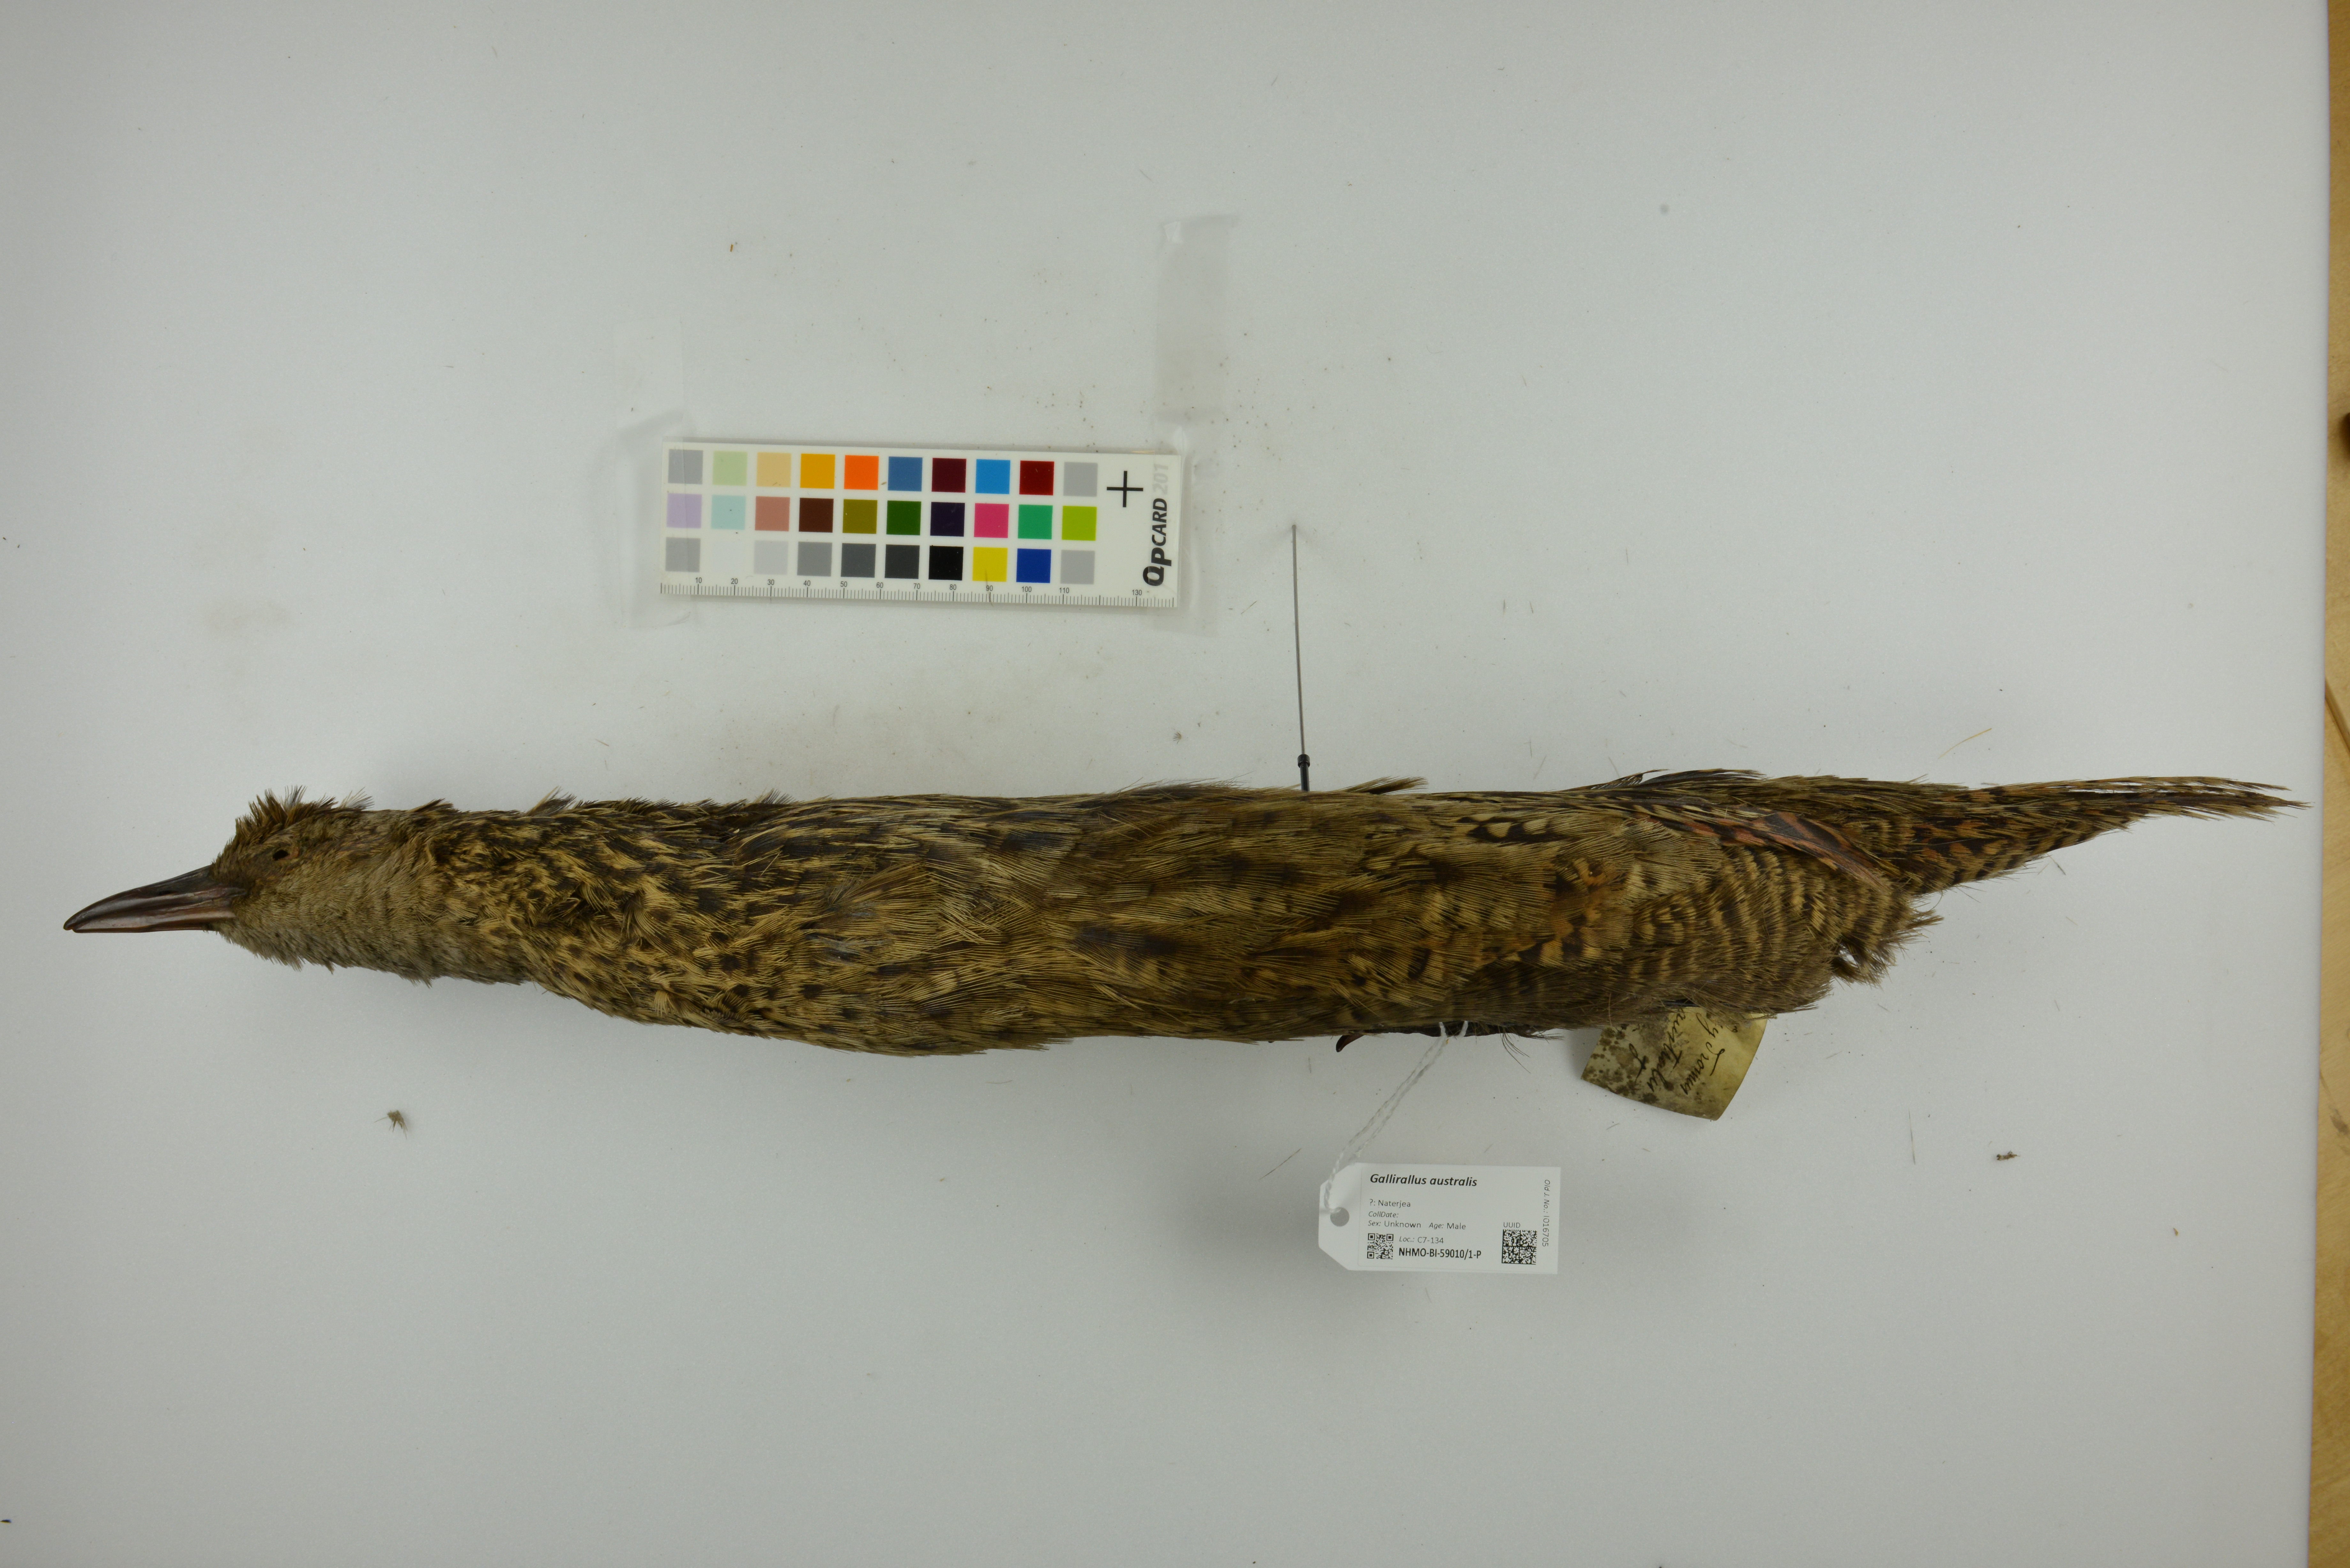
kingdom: Animalia
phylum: Chordata
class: Aves
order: Gruiformes
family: Rallidae
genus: Gallirallus
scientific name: Gallirallus australis
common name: Weka
